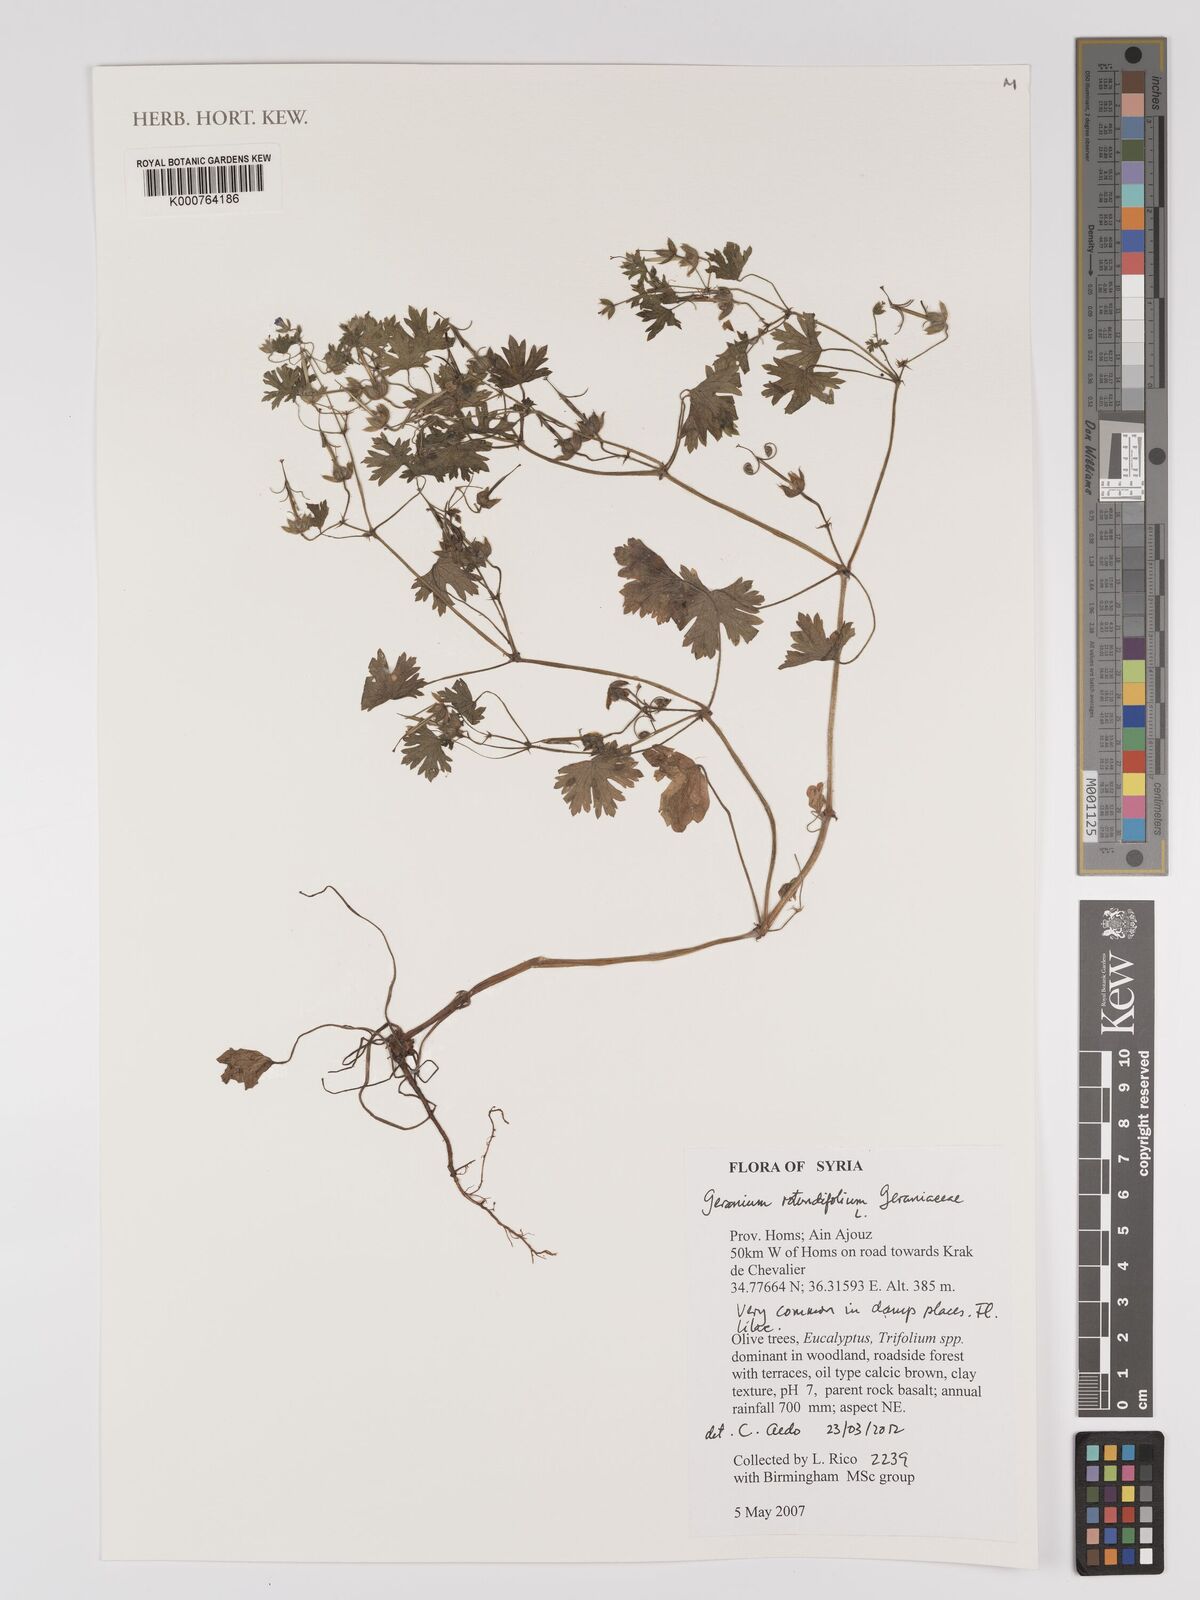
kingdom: Plantae
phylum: Tracheophyta
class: Magnoliopsida
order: Geraniales
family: Geraniaceae
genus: Geranium
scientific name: Geranium rotundifolium
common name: Round-leaved crane's-bill
